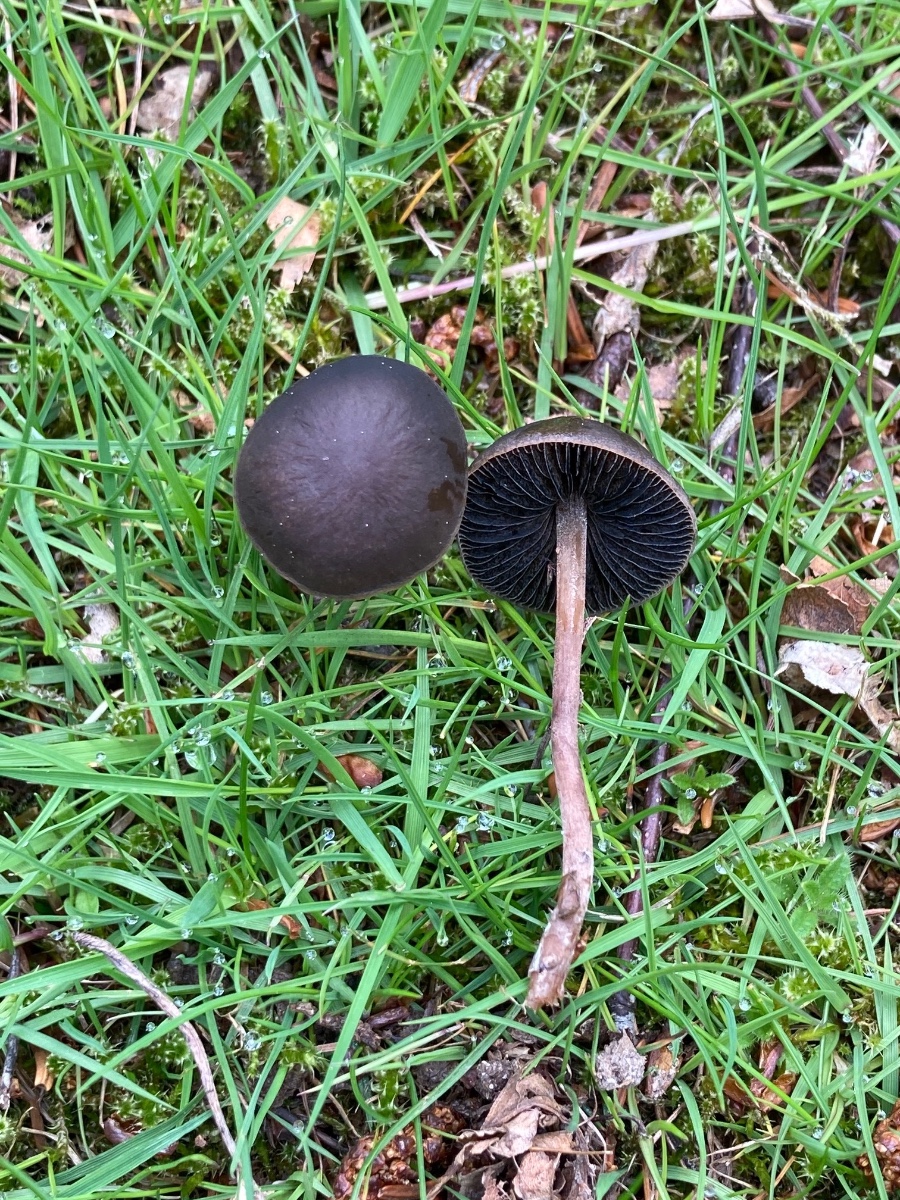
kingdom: Fungi
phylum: Basidiomycota
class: Agaricomycetes
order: Agaricales
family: Bolbitiaceae
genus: Panaeolus
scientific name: Panaeolus fimicola
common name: tidlig glanshat
